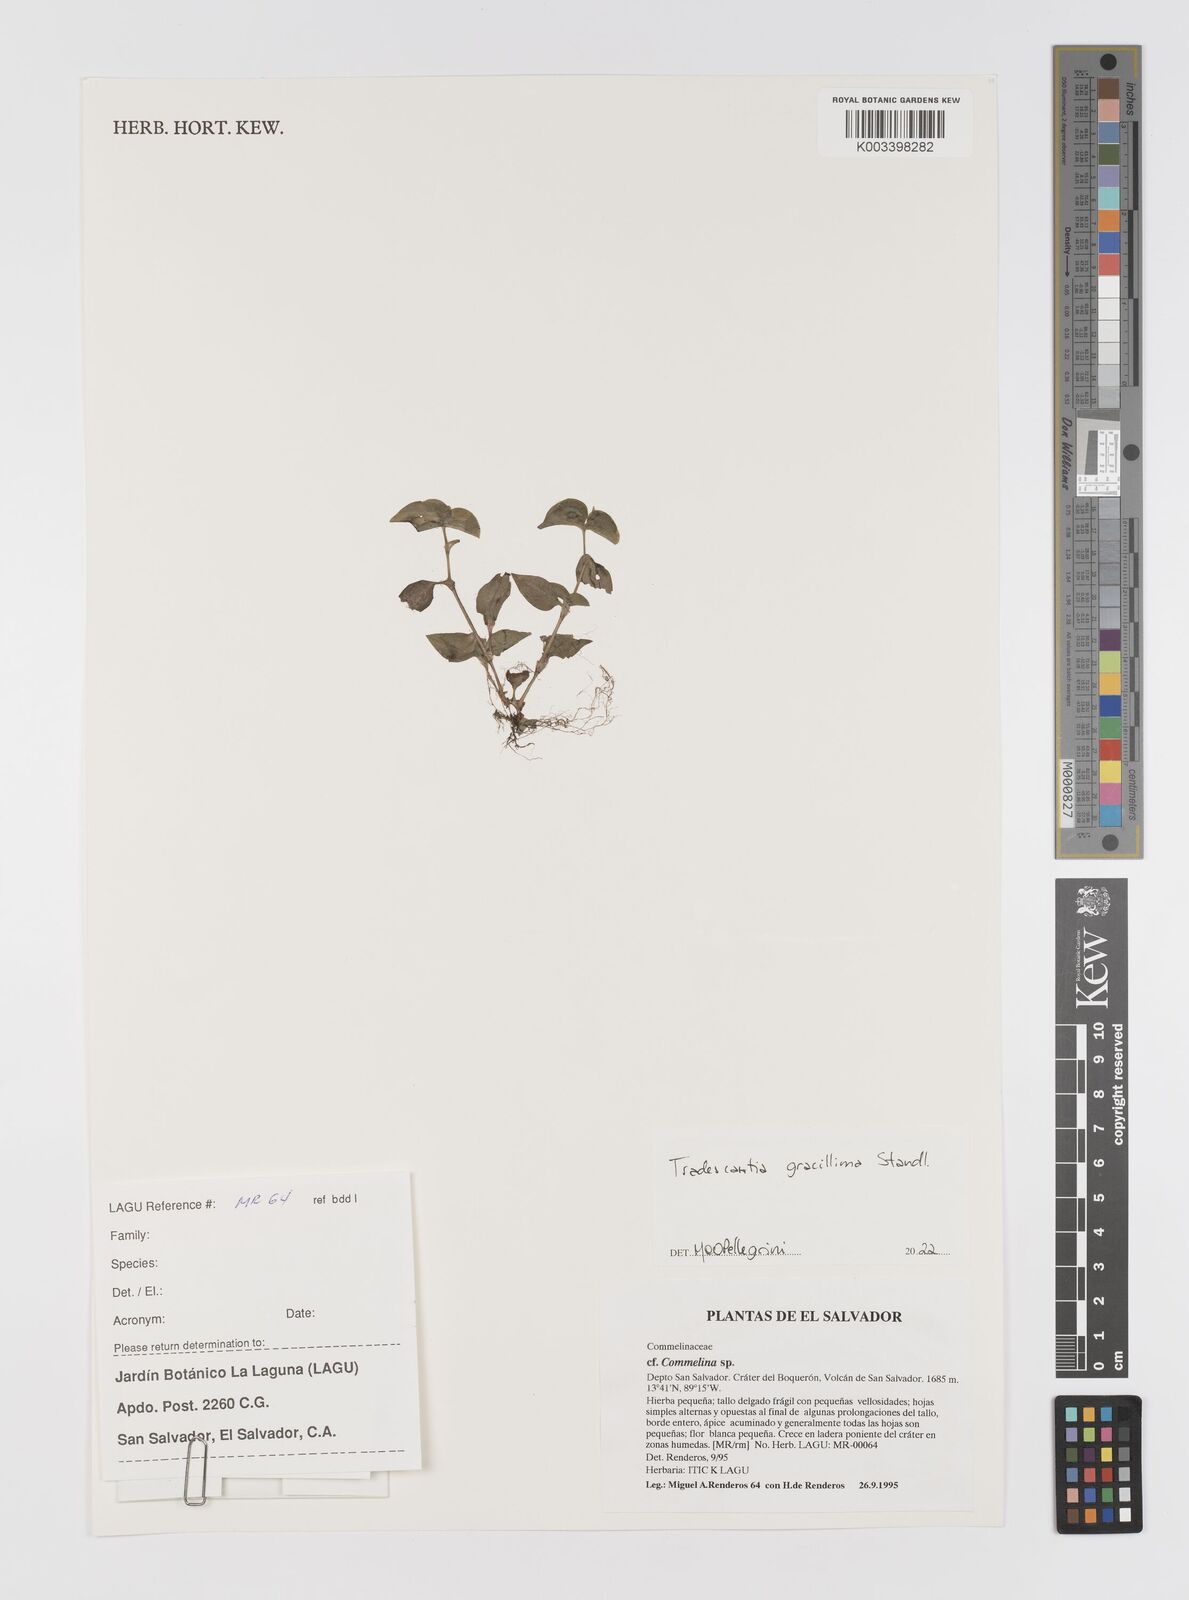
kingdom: Plantae
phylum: Tracheophyta
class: Liliopsida
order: Commelinales
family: Commelinaceae
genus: Tradescantia
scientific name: Tradescantia gracillima
